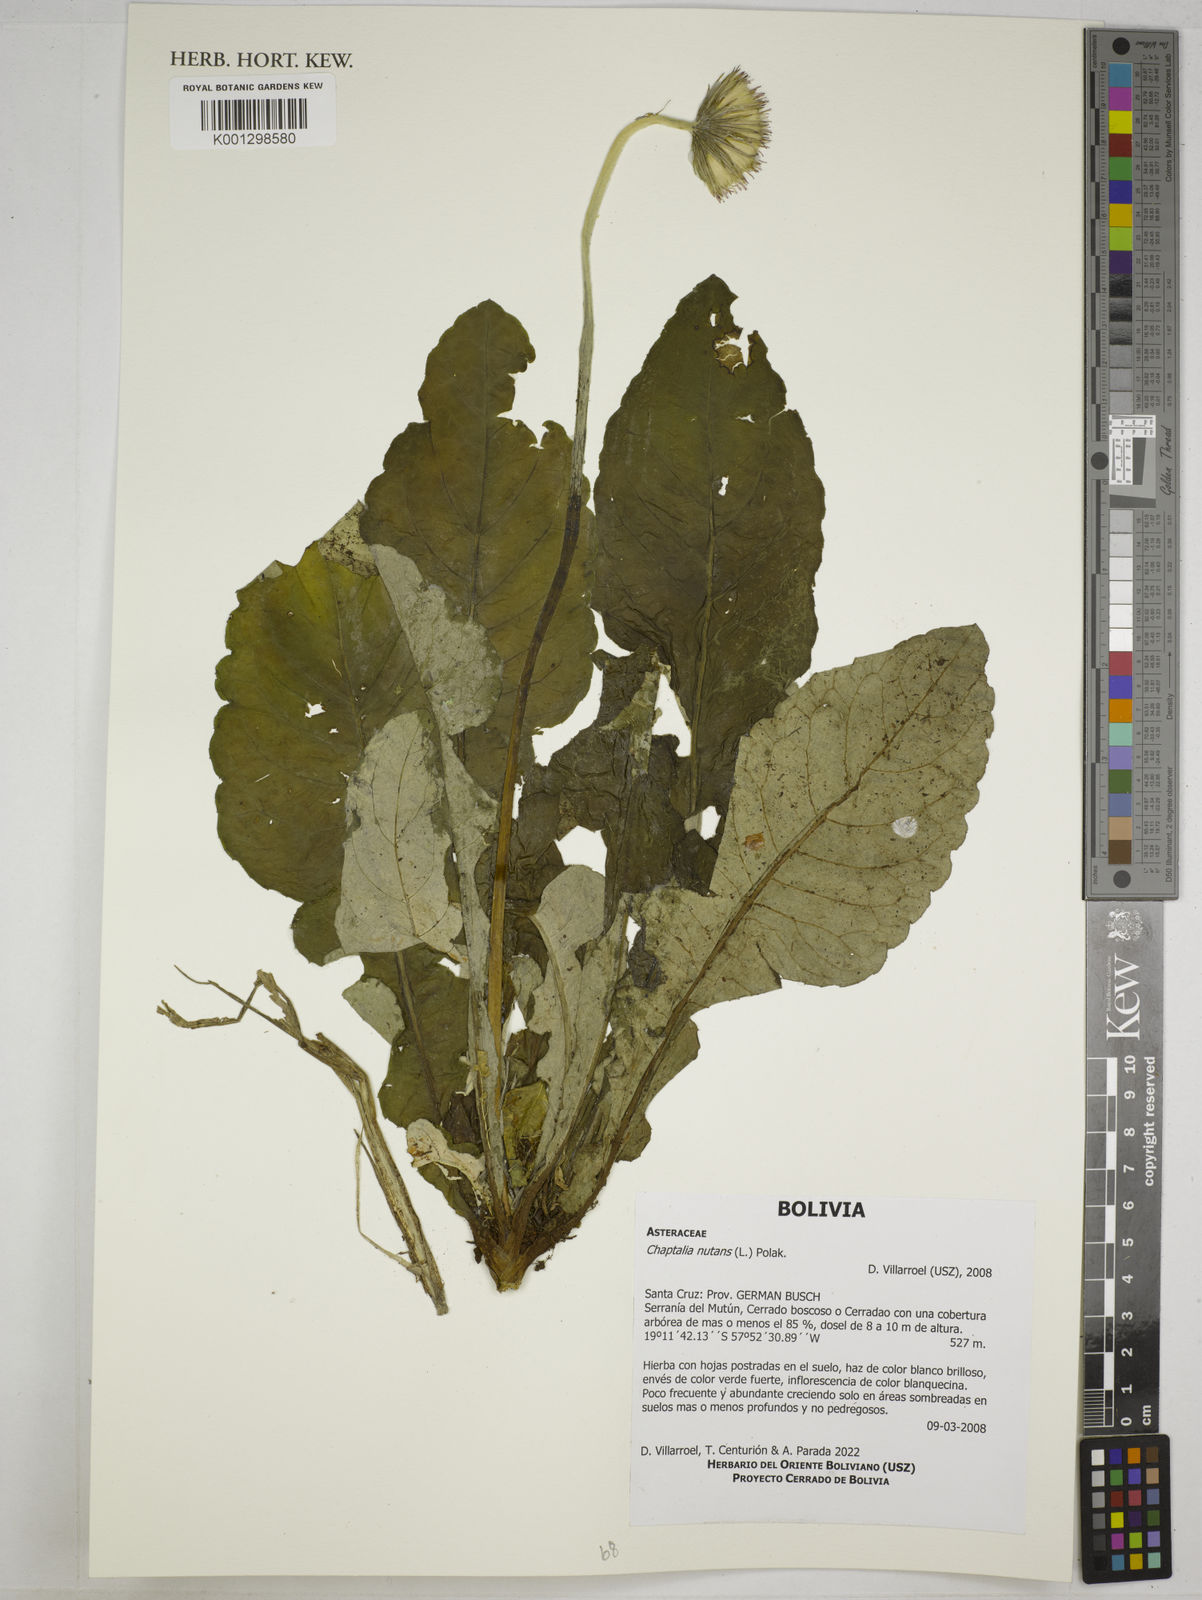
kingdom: Plantae
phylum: Tracheophyta
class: Magnoliopsida
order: Asterales
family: Asteraceae
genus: Chaptalia
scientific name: Chaptalia nutans
